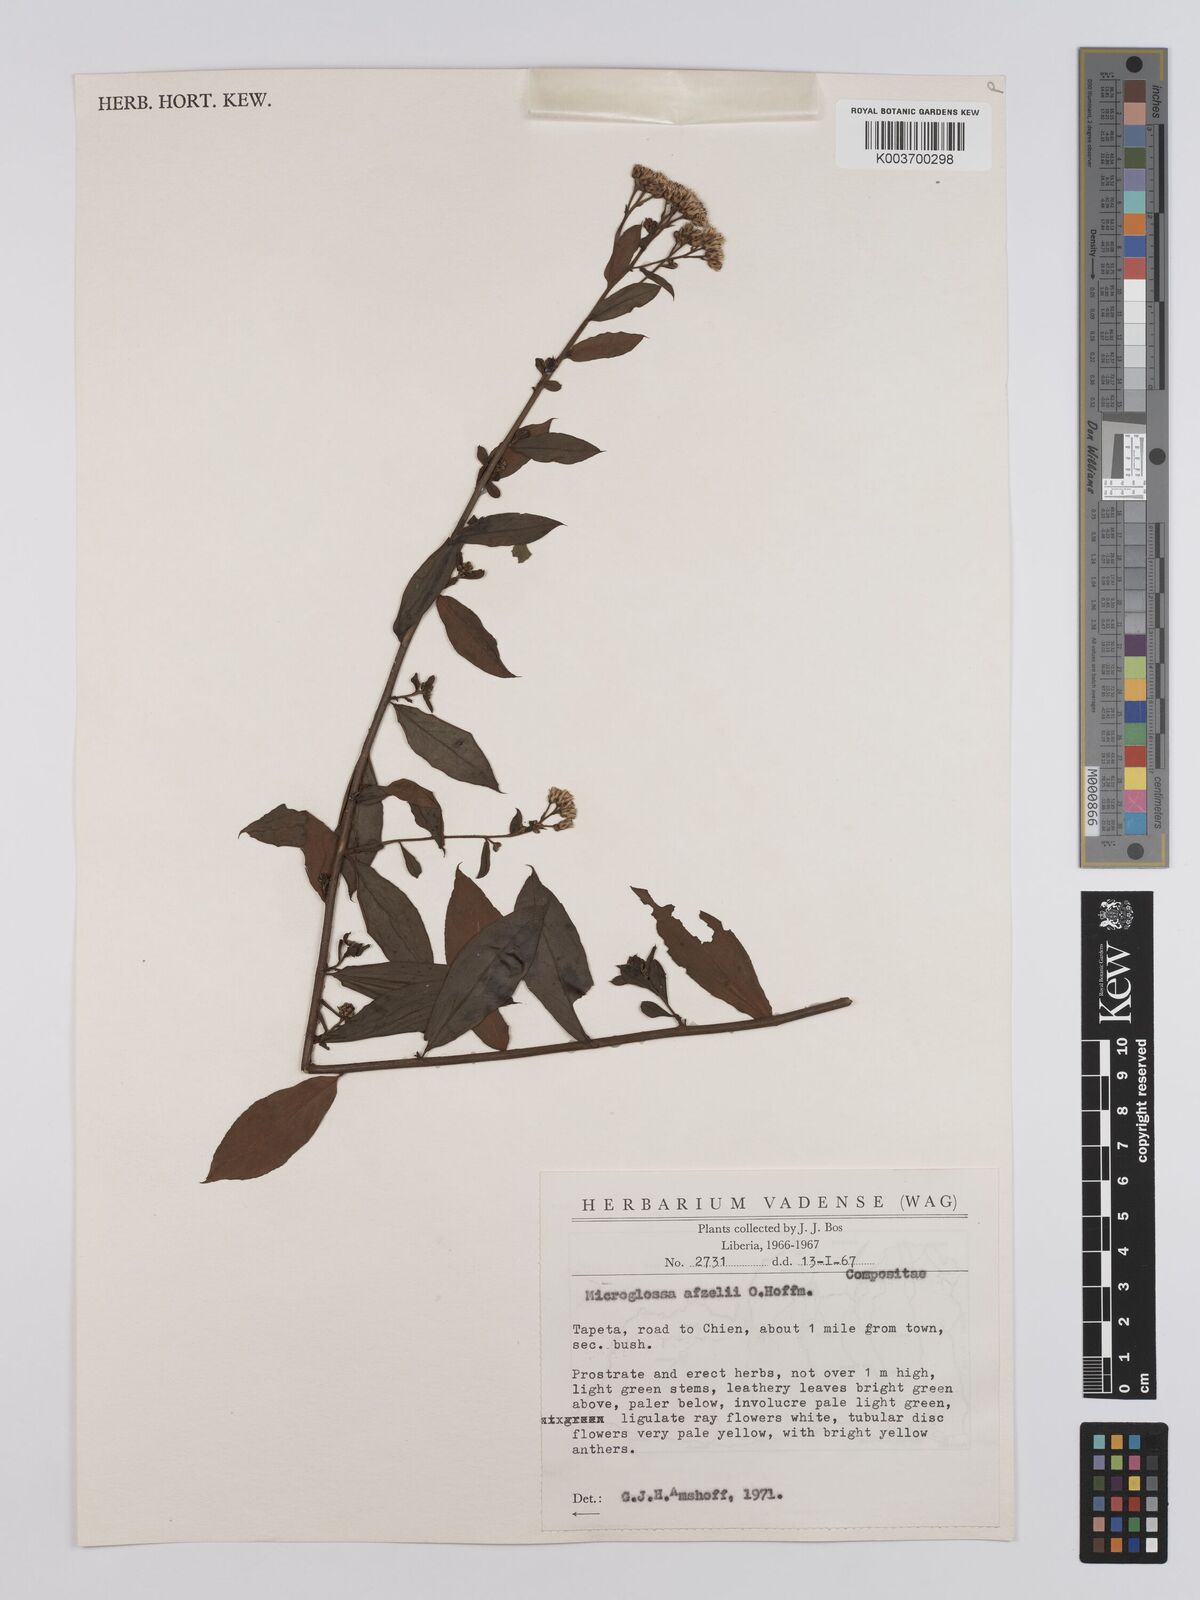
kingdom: Plantae
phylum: Tracheophyta
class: Magnoliopsida
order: Asterales
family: Asteraceae
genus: Microglossa
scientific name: Microglossa afzelii
